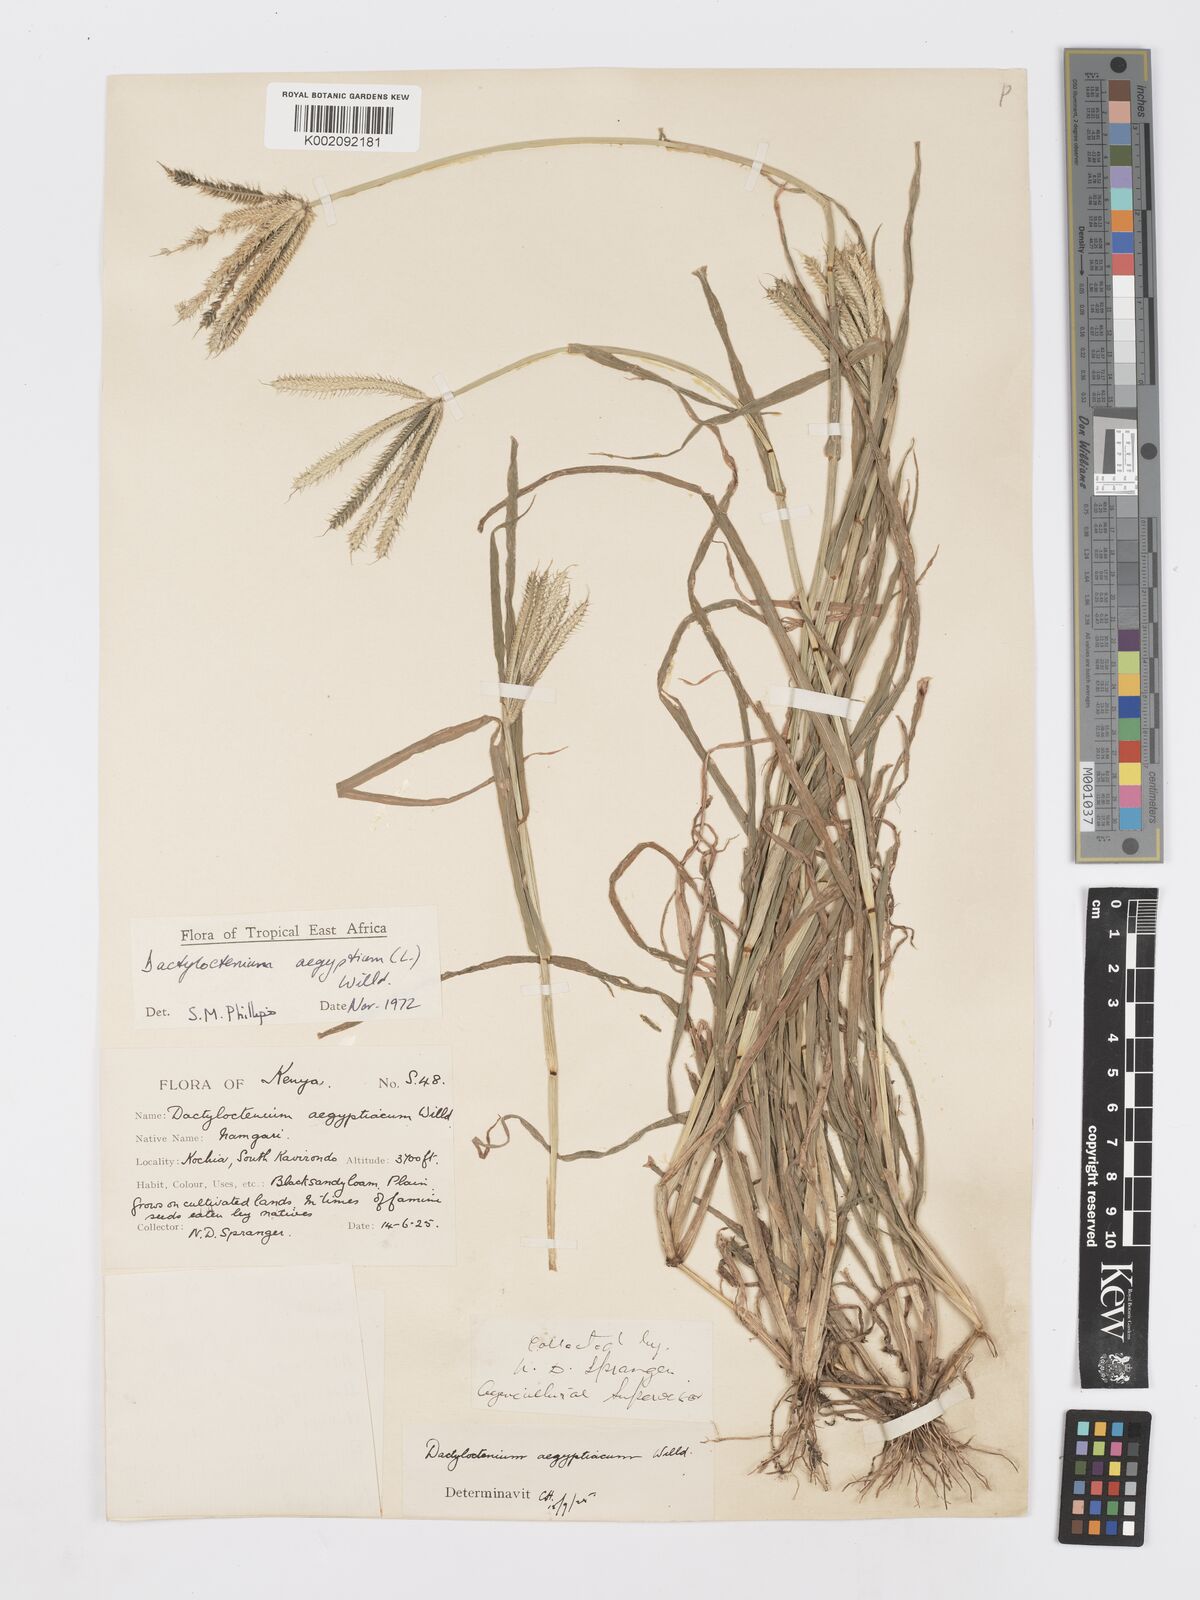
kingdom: Plantae
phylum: Tracheophyta
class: Liliopsida
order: Poales
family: Poaceae
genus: Dactyloctenium
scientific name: Dactyloctenium aegyptium
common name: Egyptian grass
